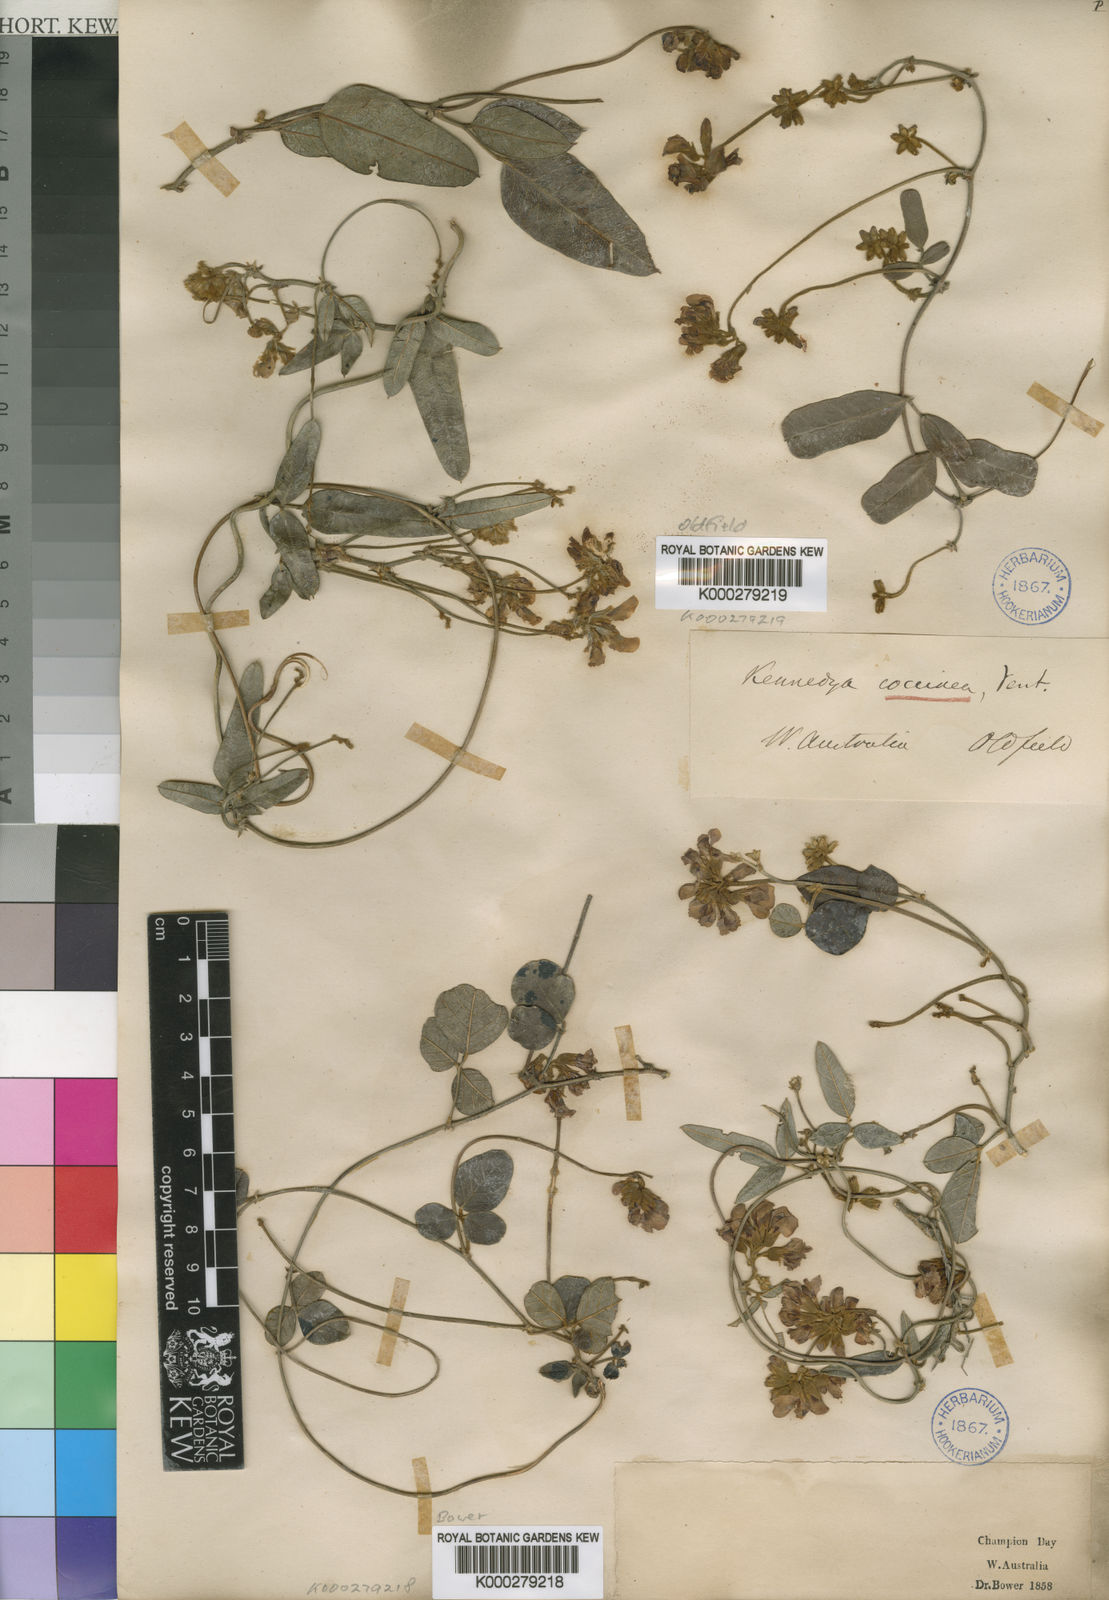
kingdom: Plantae
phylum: Tracheophyta
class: Magnoliopsida
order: Fabales
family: Fabaceae
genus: Kennedia
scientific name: Kennedia coccinea
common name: Coralvine
